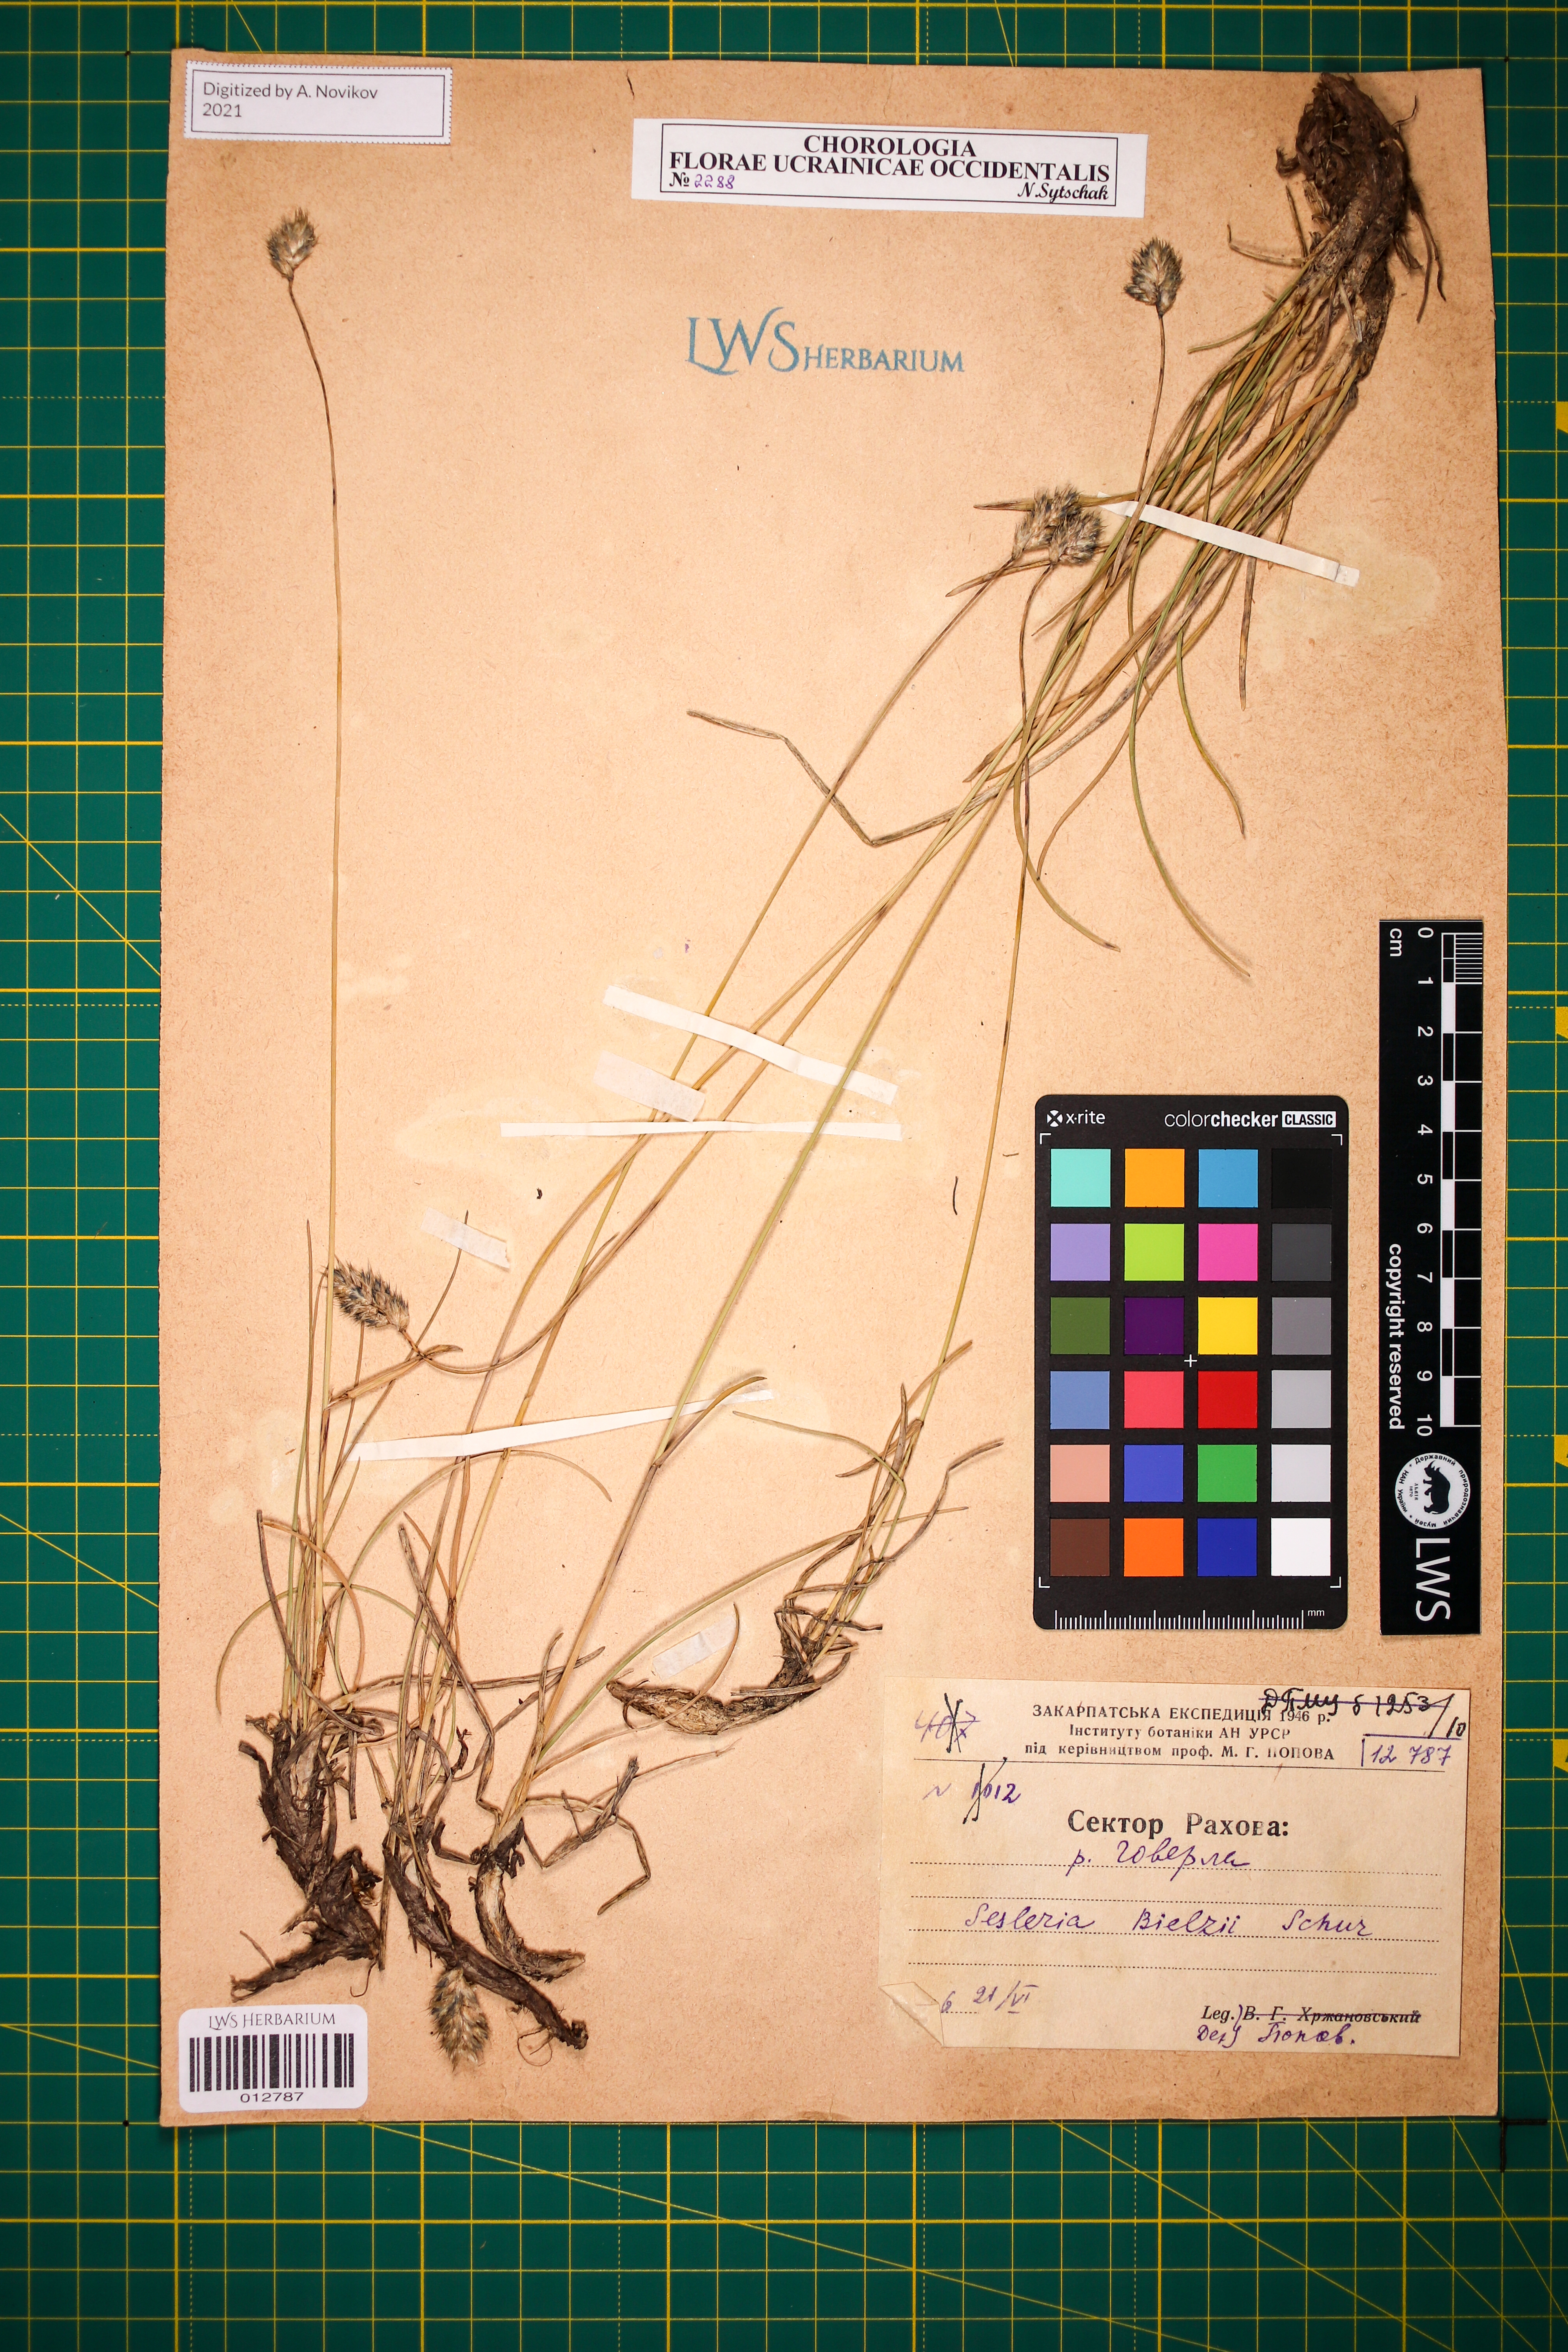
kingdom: Plantae
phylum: Tracheophyta
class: Liliopsida
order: Poales
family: Poaceae
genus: Sesleria
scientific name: Sesleria bielzii
